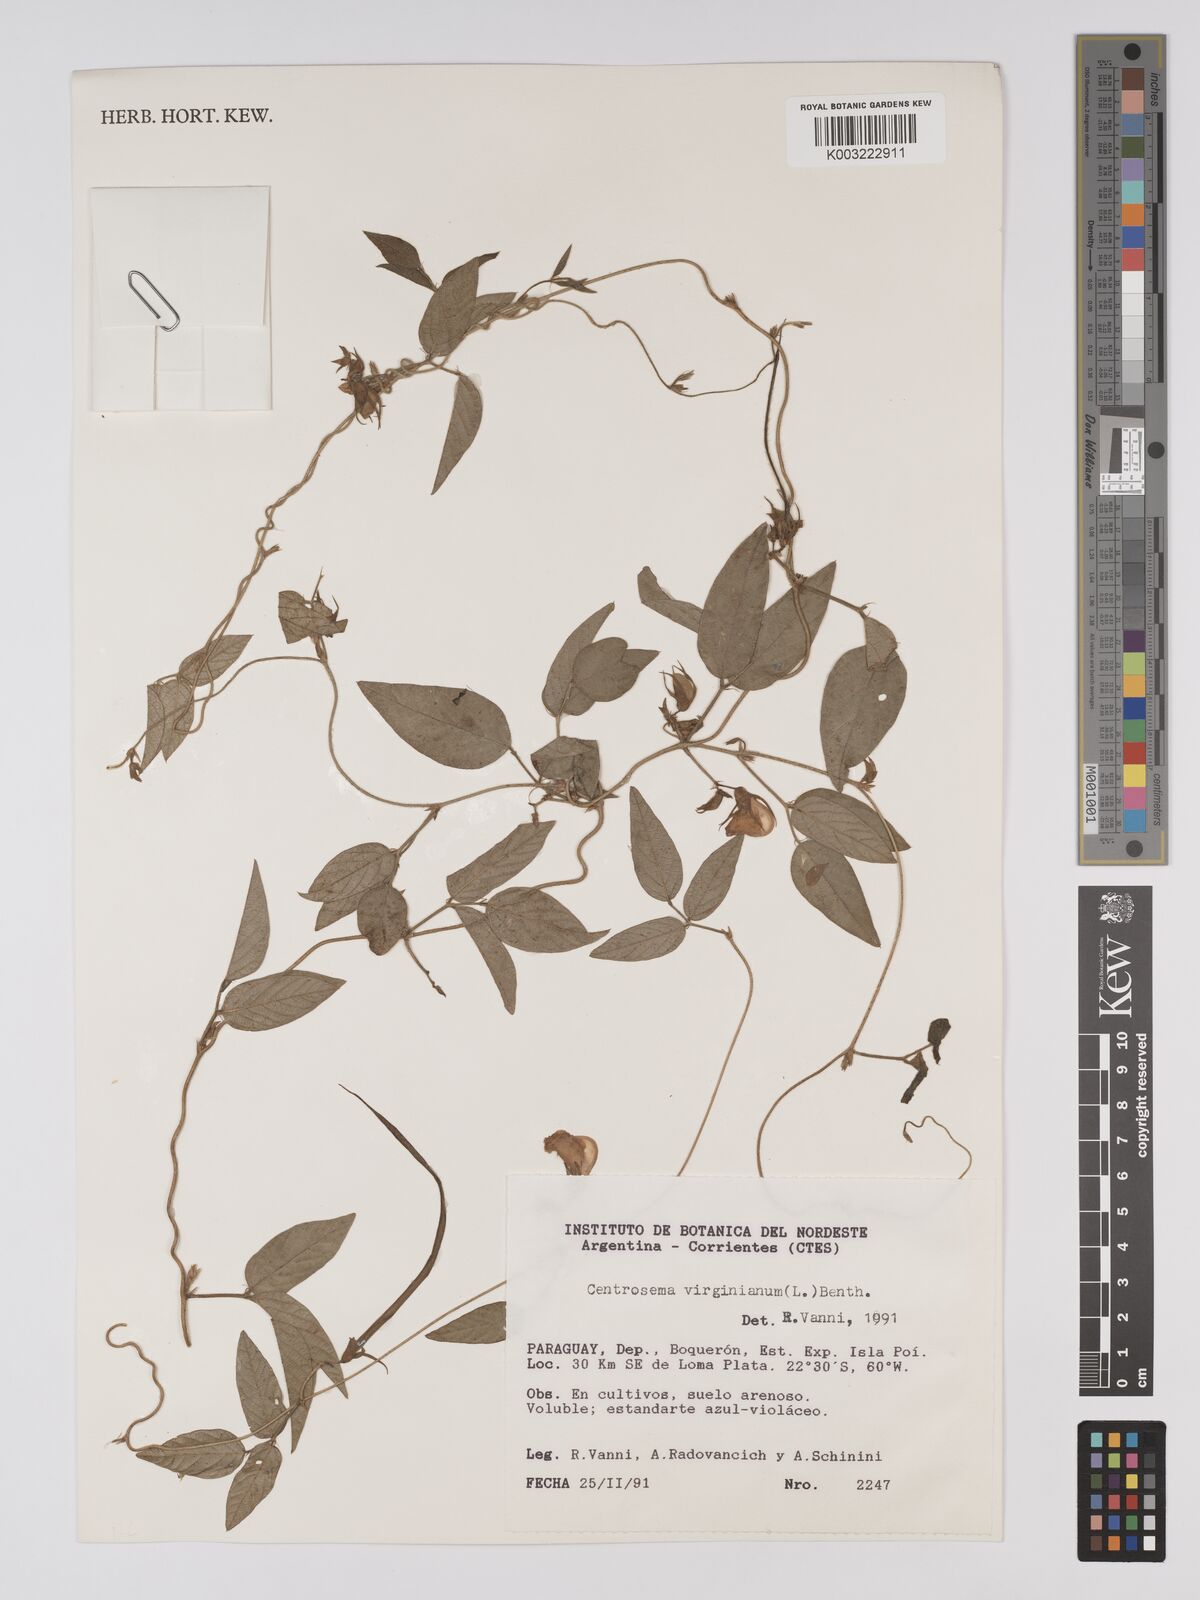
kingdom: Plantae
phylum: Tracheophyta
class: Magnoliopsida
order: Fabales
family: Fabaceae
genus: Centrosema
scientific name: Centrosema virginianum
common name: Butterfly-pea
